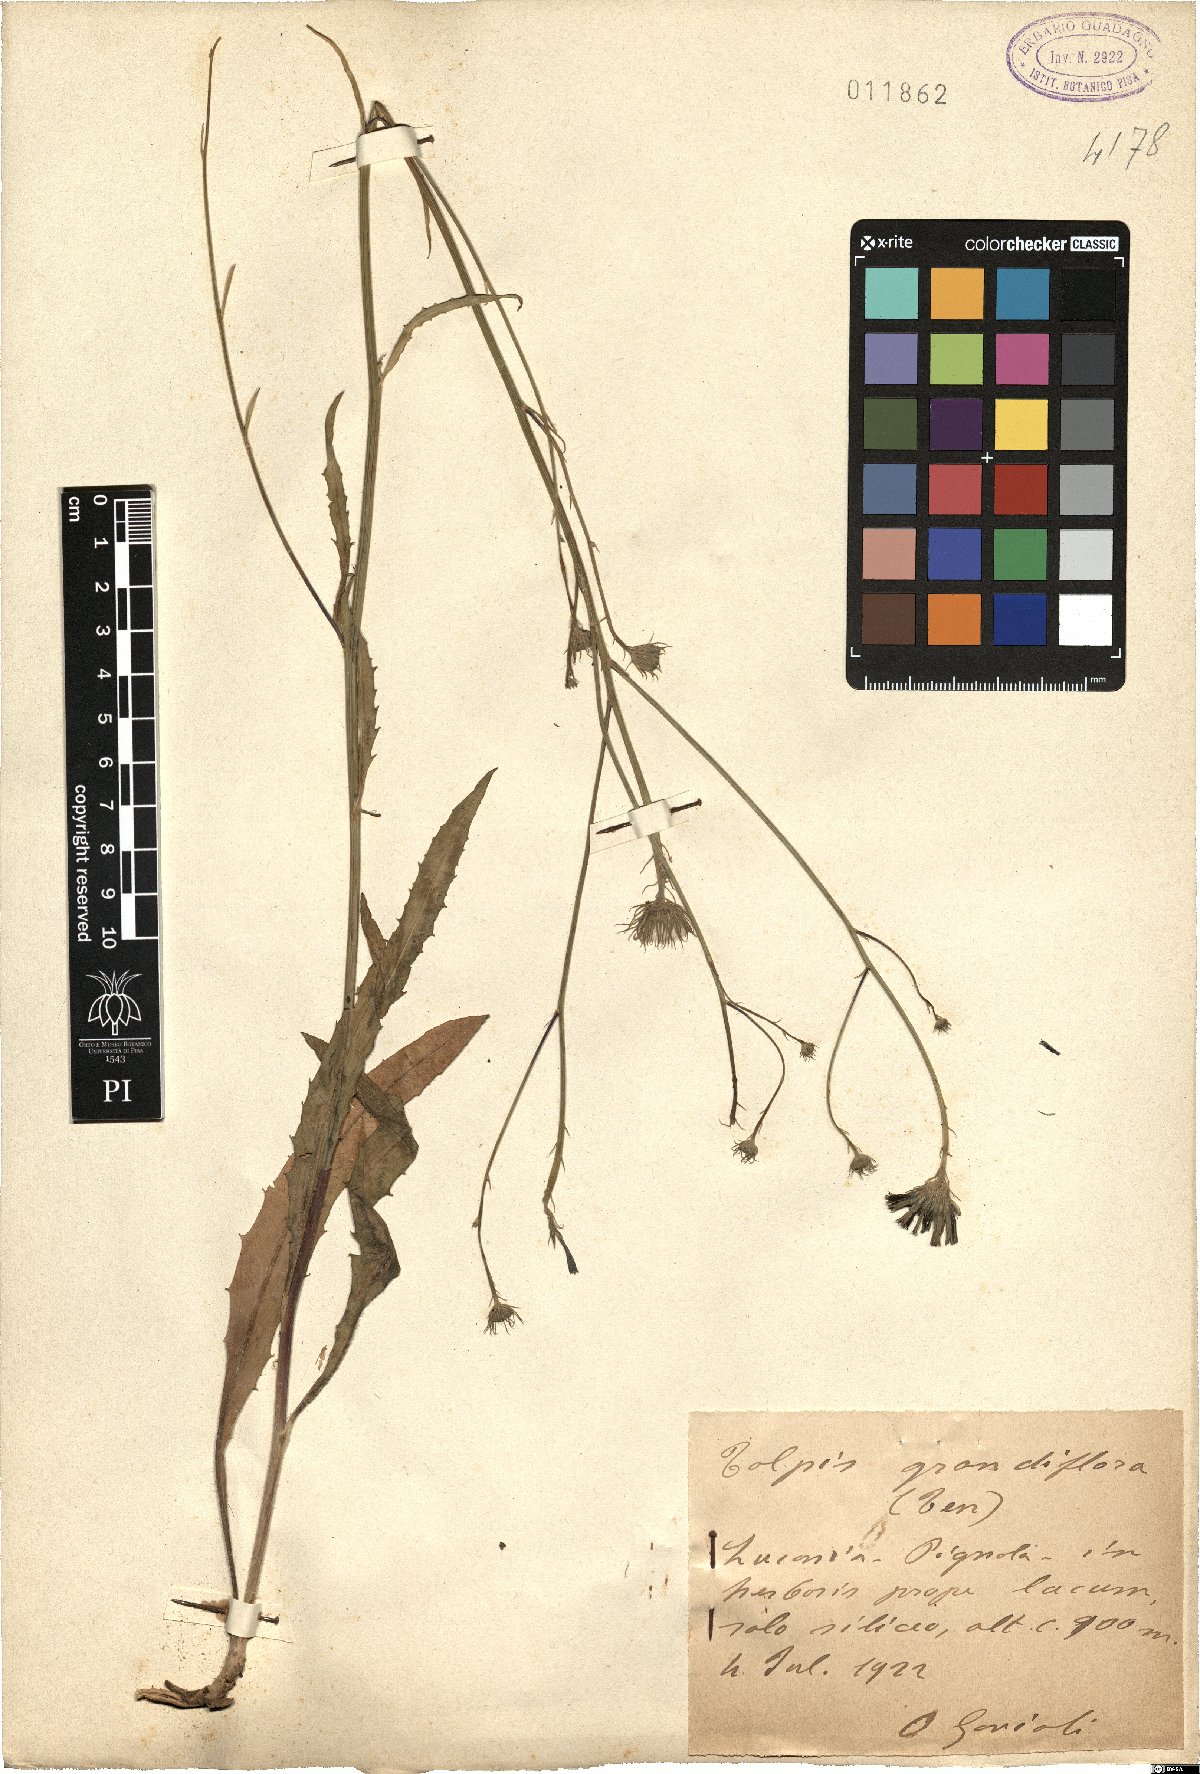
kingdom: Plantae
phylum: Tracheophyta
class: Magnoliopsida
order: Asterales
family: Asteraceae
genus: Tolpis
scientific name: Tolpis virgata
